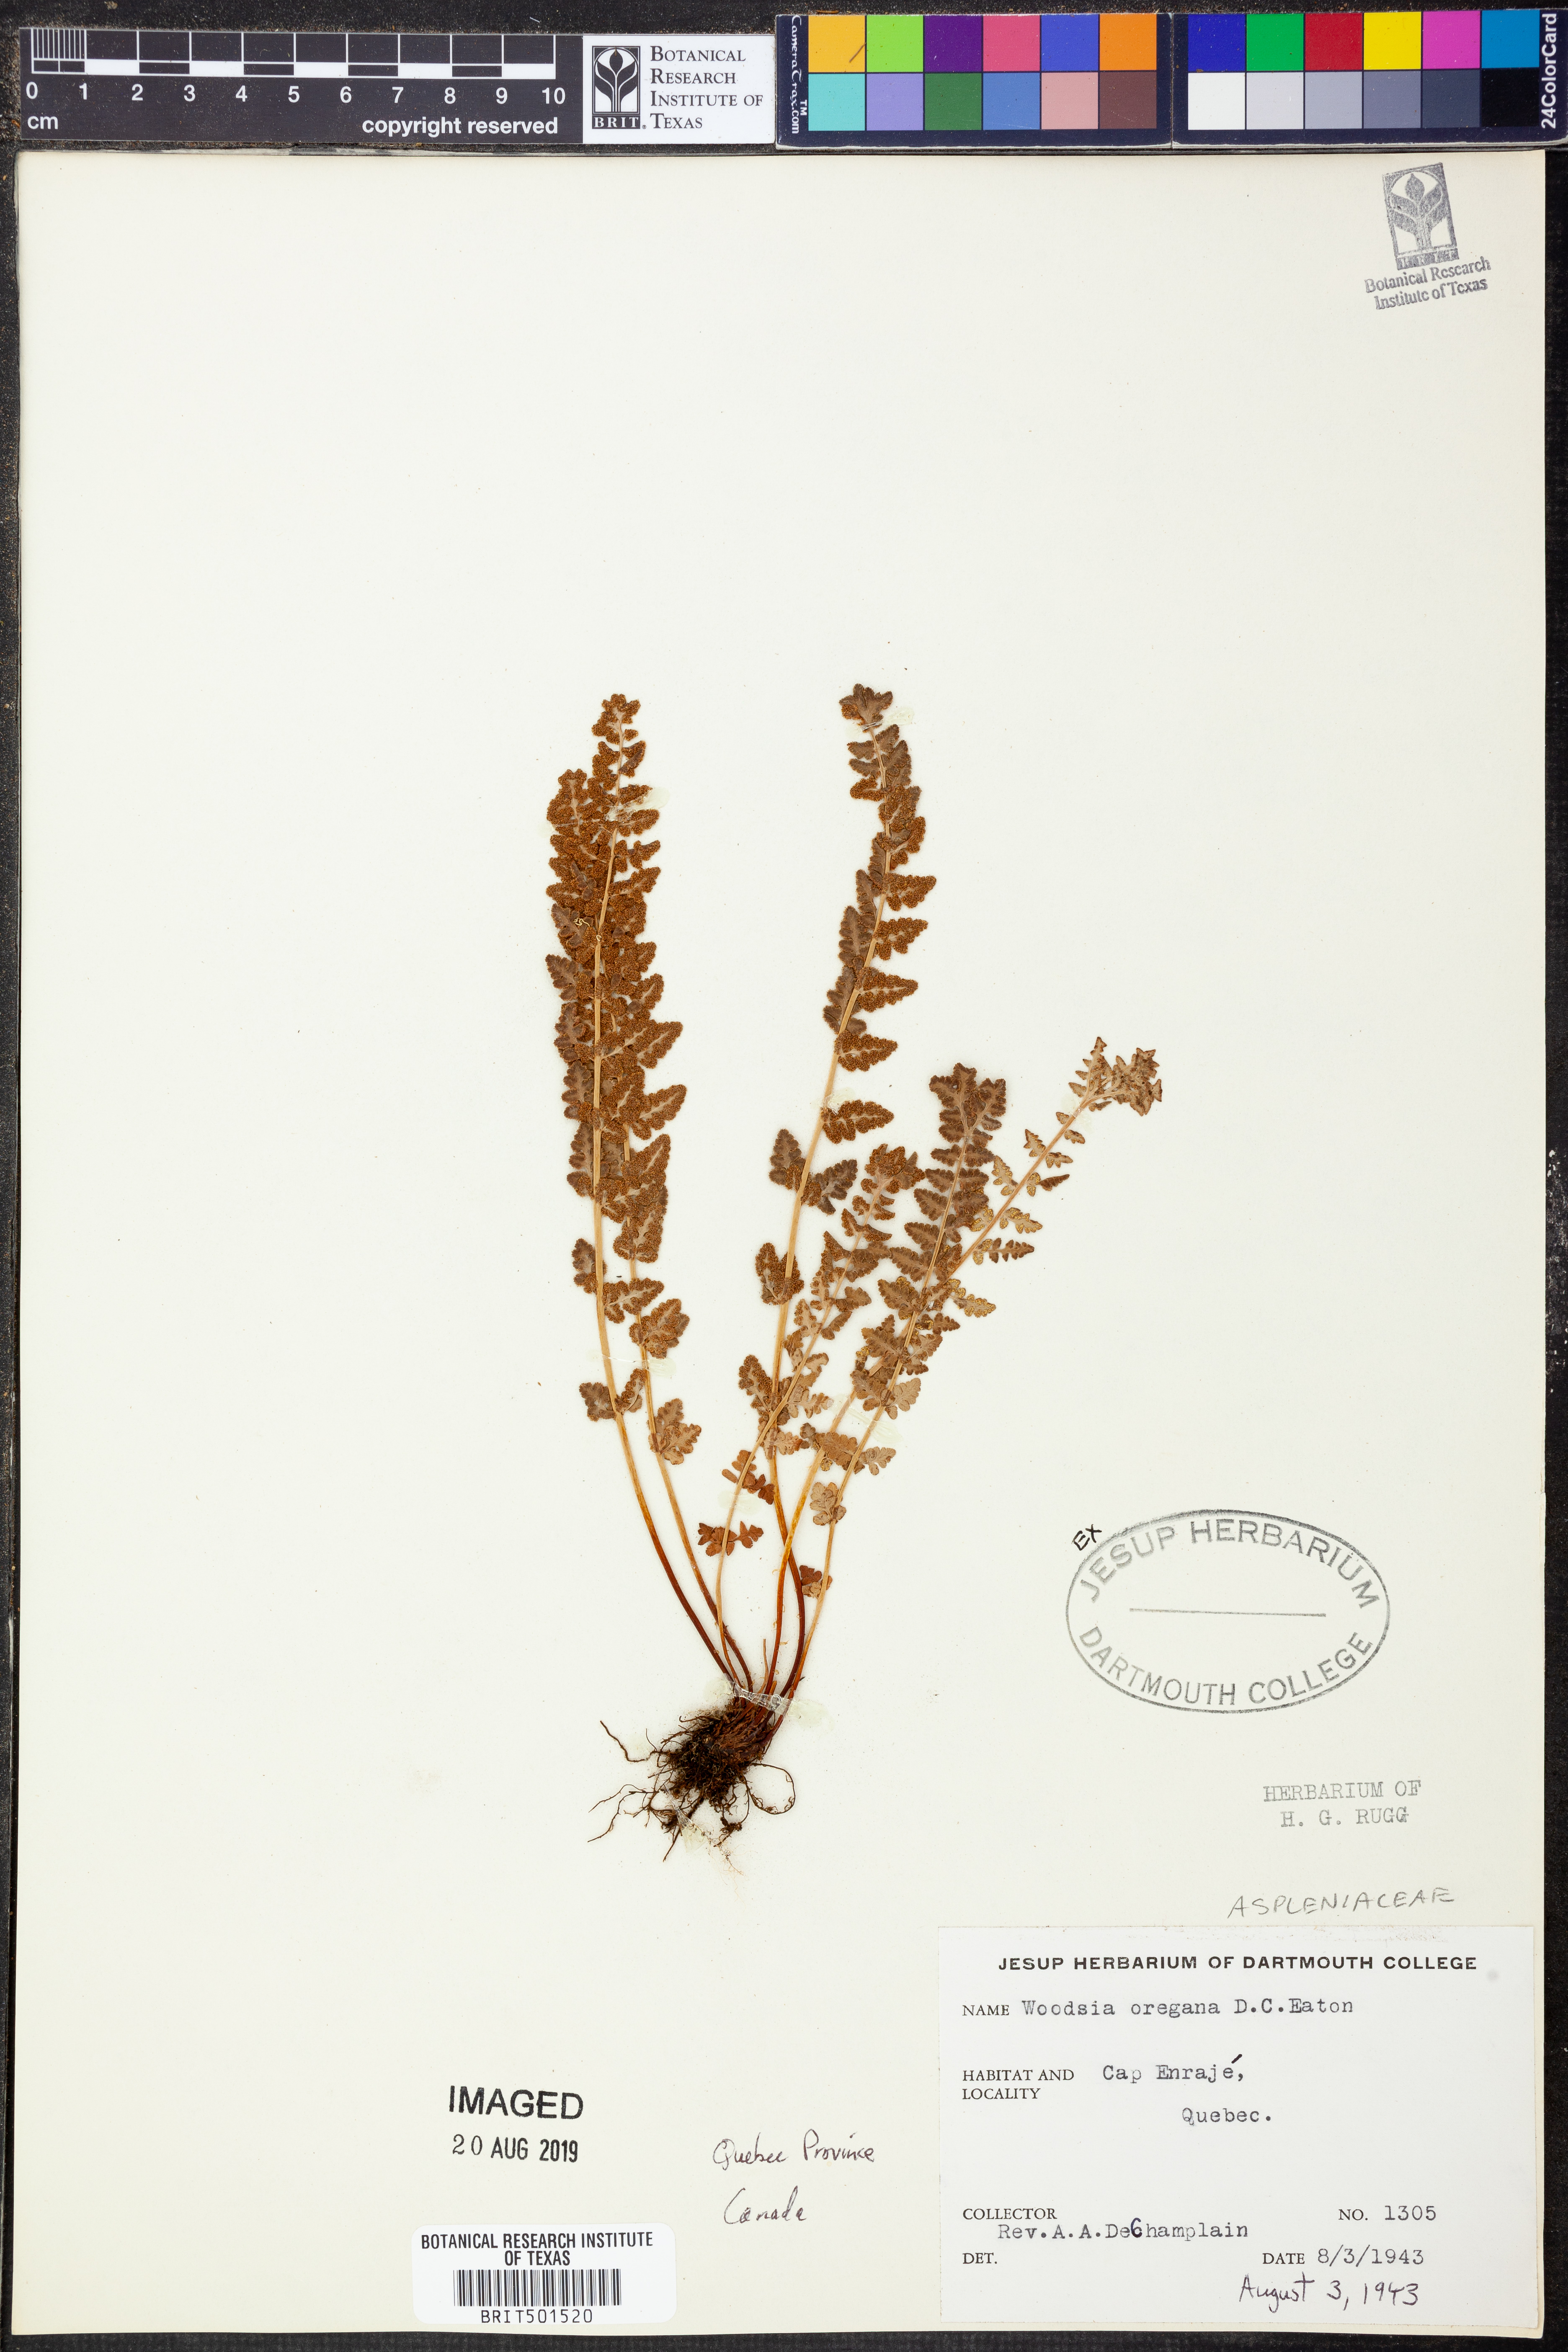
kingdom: Plantae
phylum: Tracheophyta
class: Polypodiopsida
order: Polypodiales
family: Woodsiaceae
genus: Physematium
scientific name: Physematium oreganum
